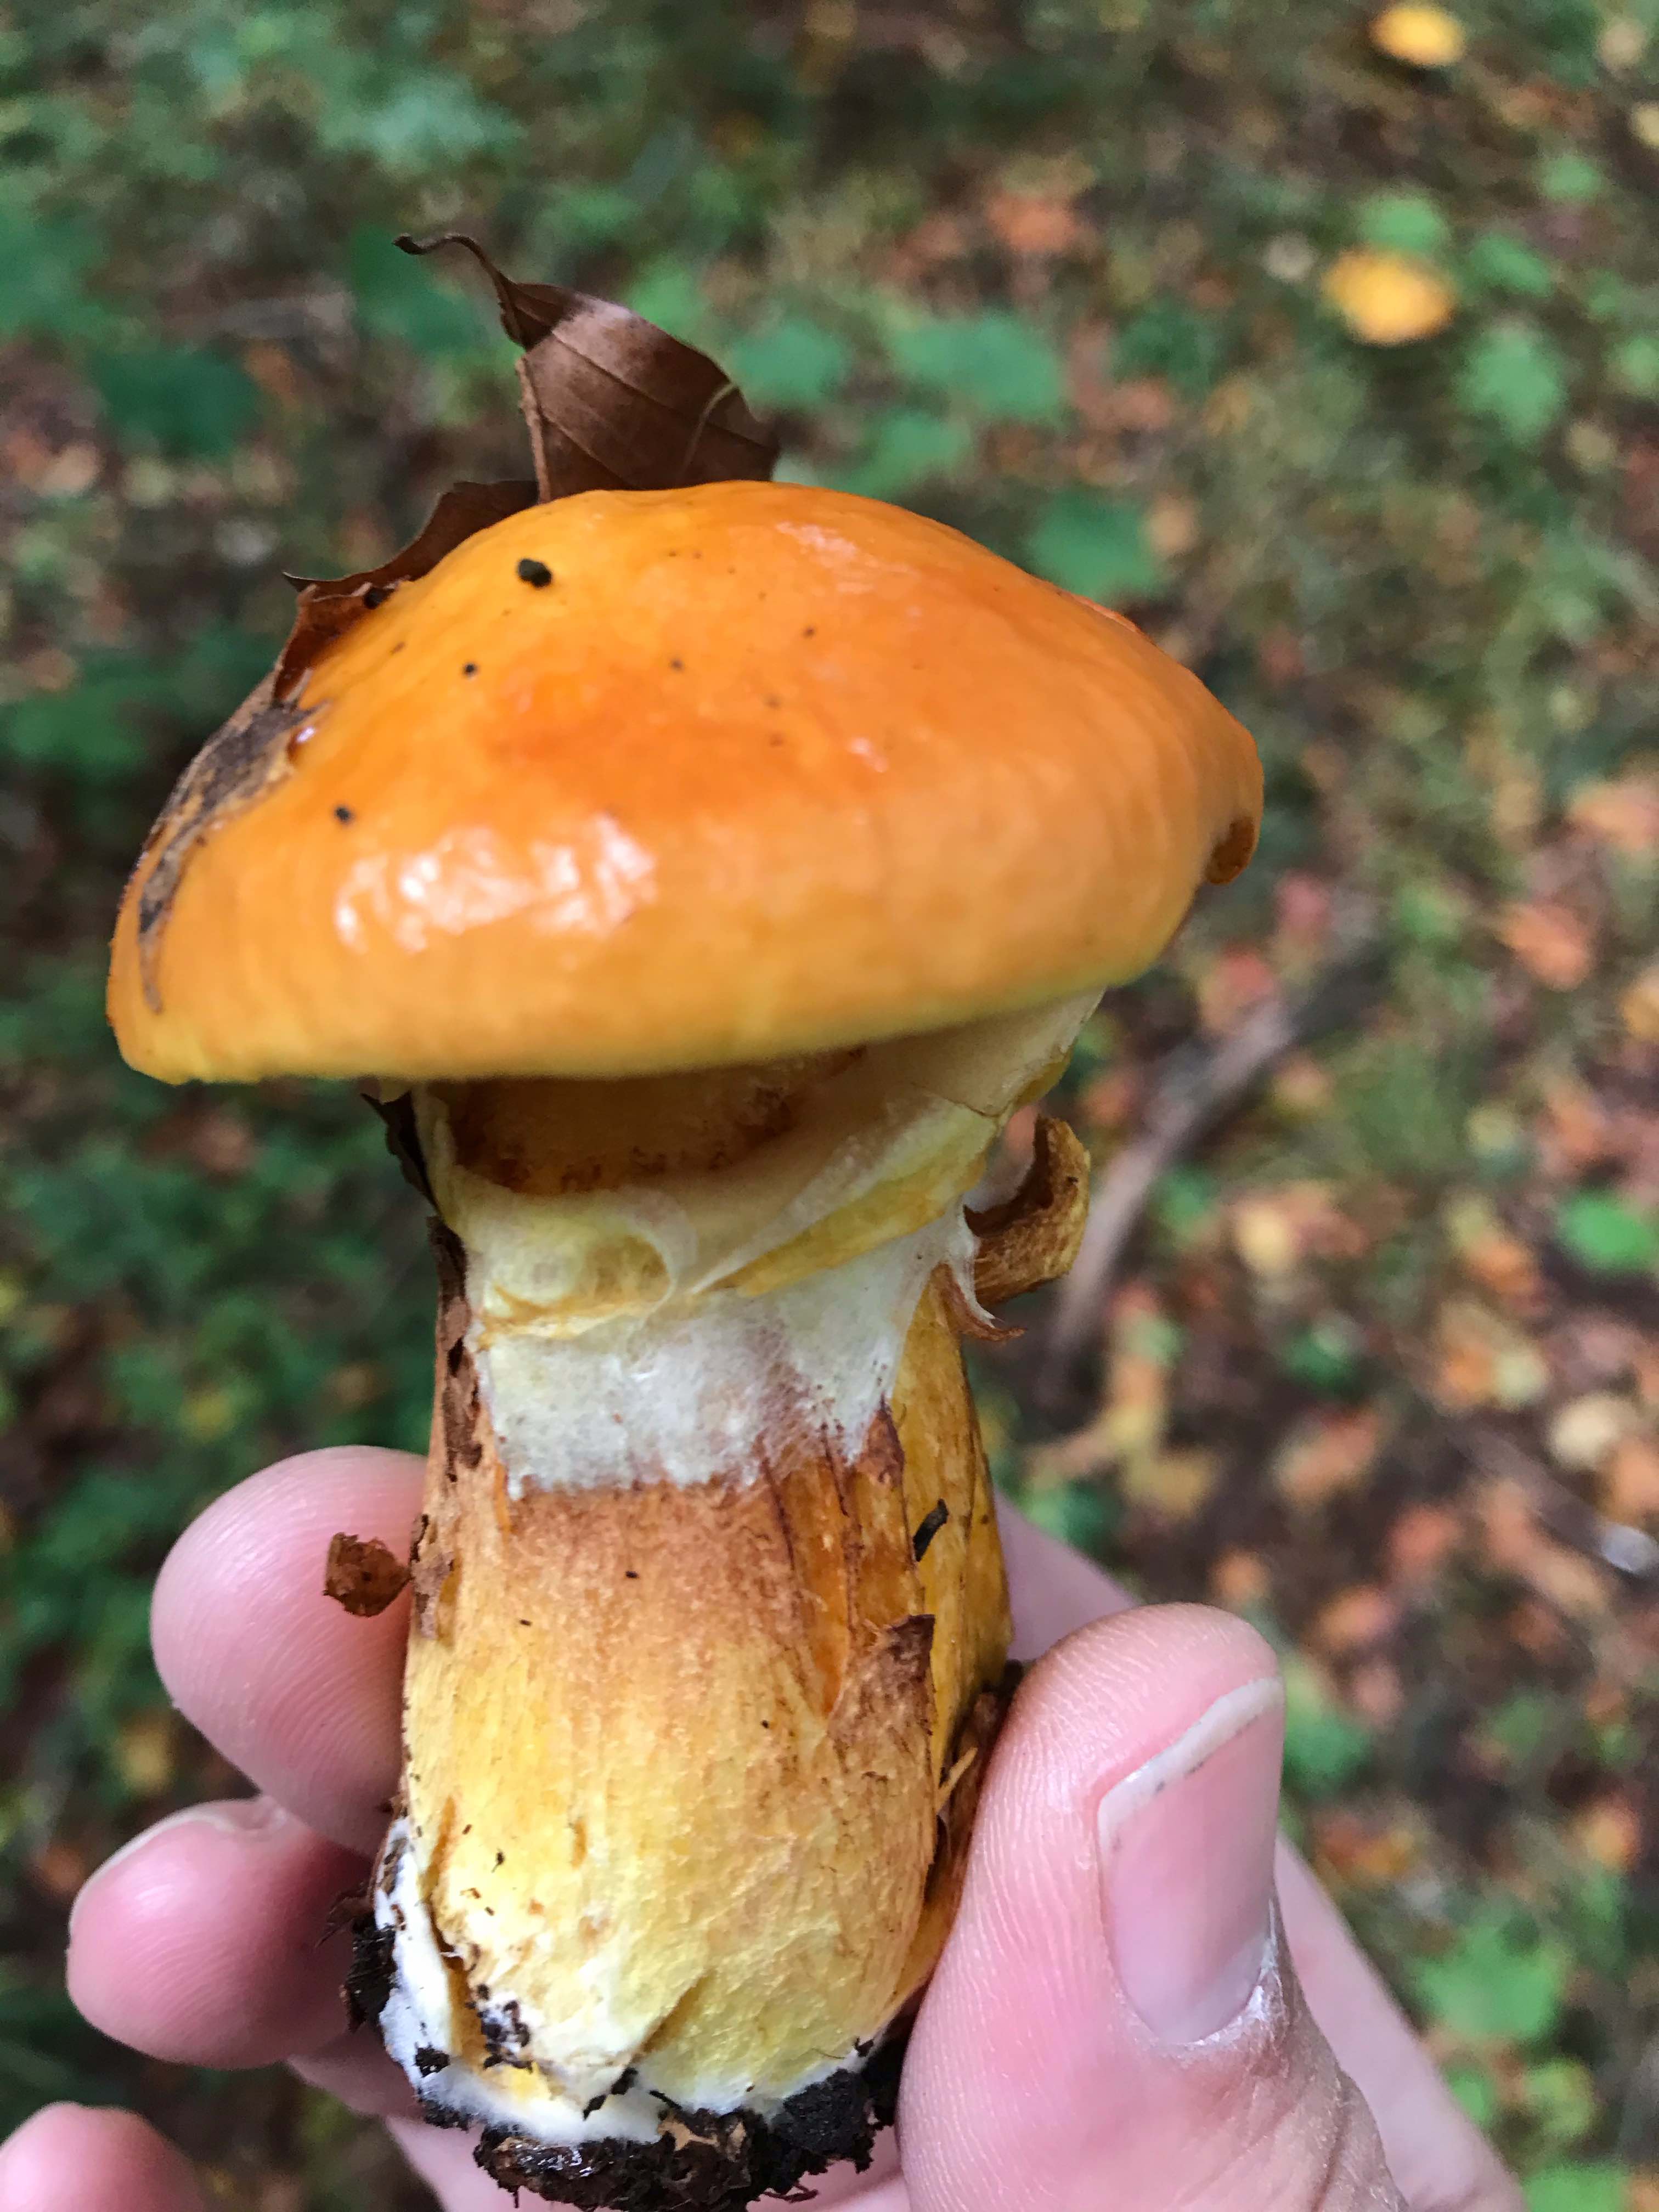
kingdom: Fungi
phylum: Basidiomycota
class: Agaricomycetes
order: Boletales
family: Suillaceae
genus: Suillus
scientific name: Suillus grevillei
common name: lærke-slimrørhat
